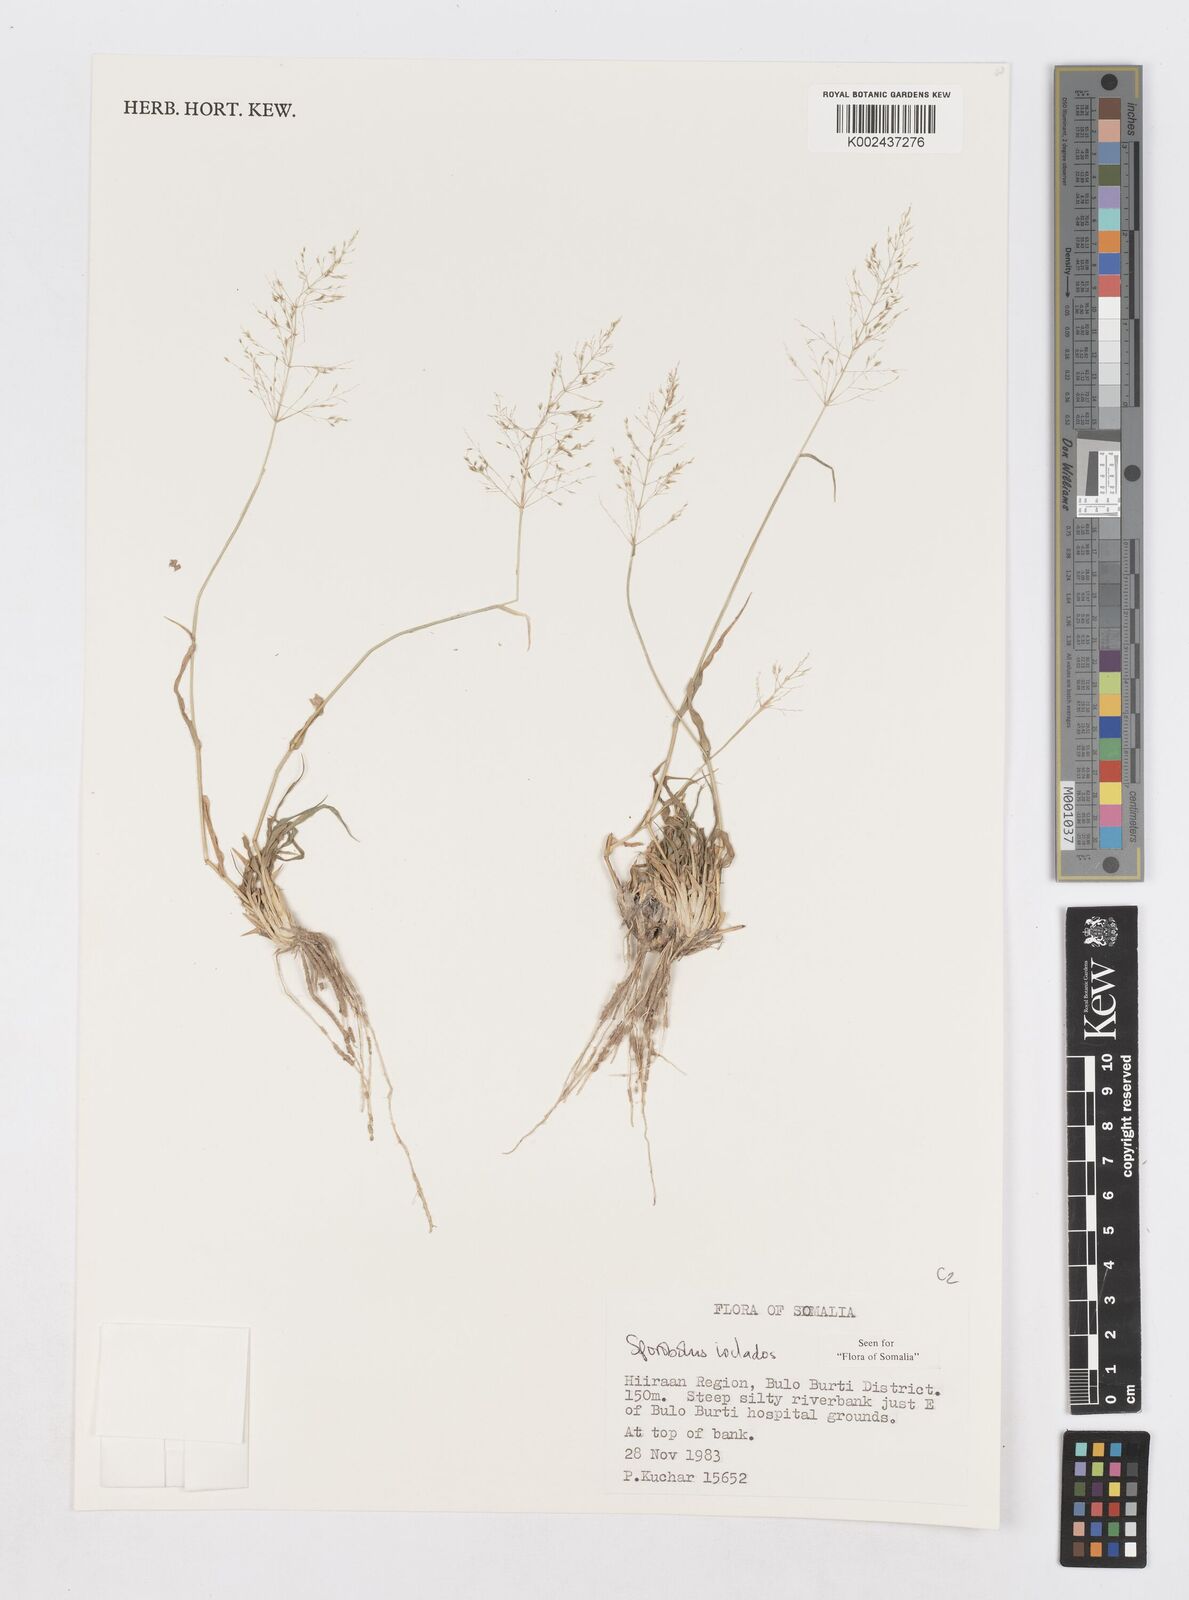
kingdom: Plantae
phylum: Tracheophyta
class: Liliopsida
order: Poales
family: Poaceae
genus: Sporobolus
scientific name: Sporobolus ioclados
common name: Pan dropseed
